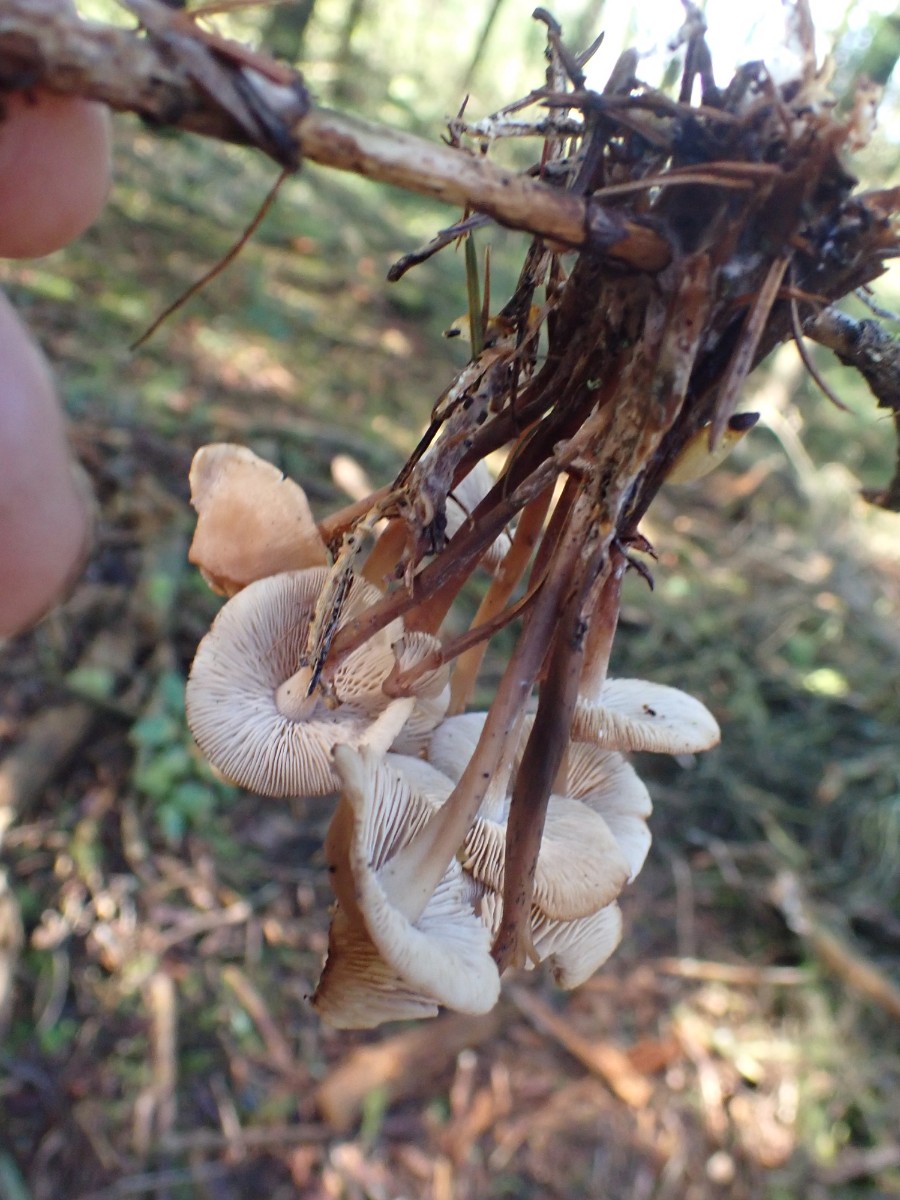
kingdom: Fungi
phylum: Basidiomycota
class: Agaricomycetes
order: Agaricales
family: Omphalotaceae
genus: Collybiopsis
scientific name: Collybiopsis confluens
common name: knippe-fladhat
